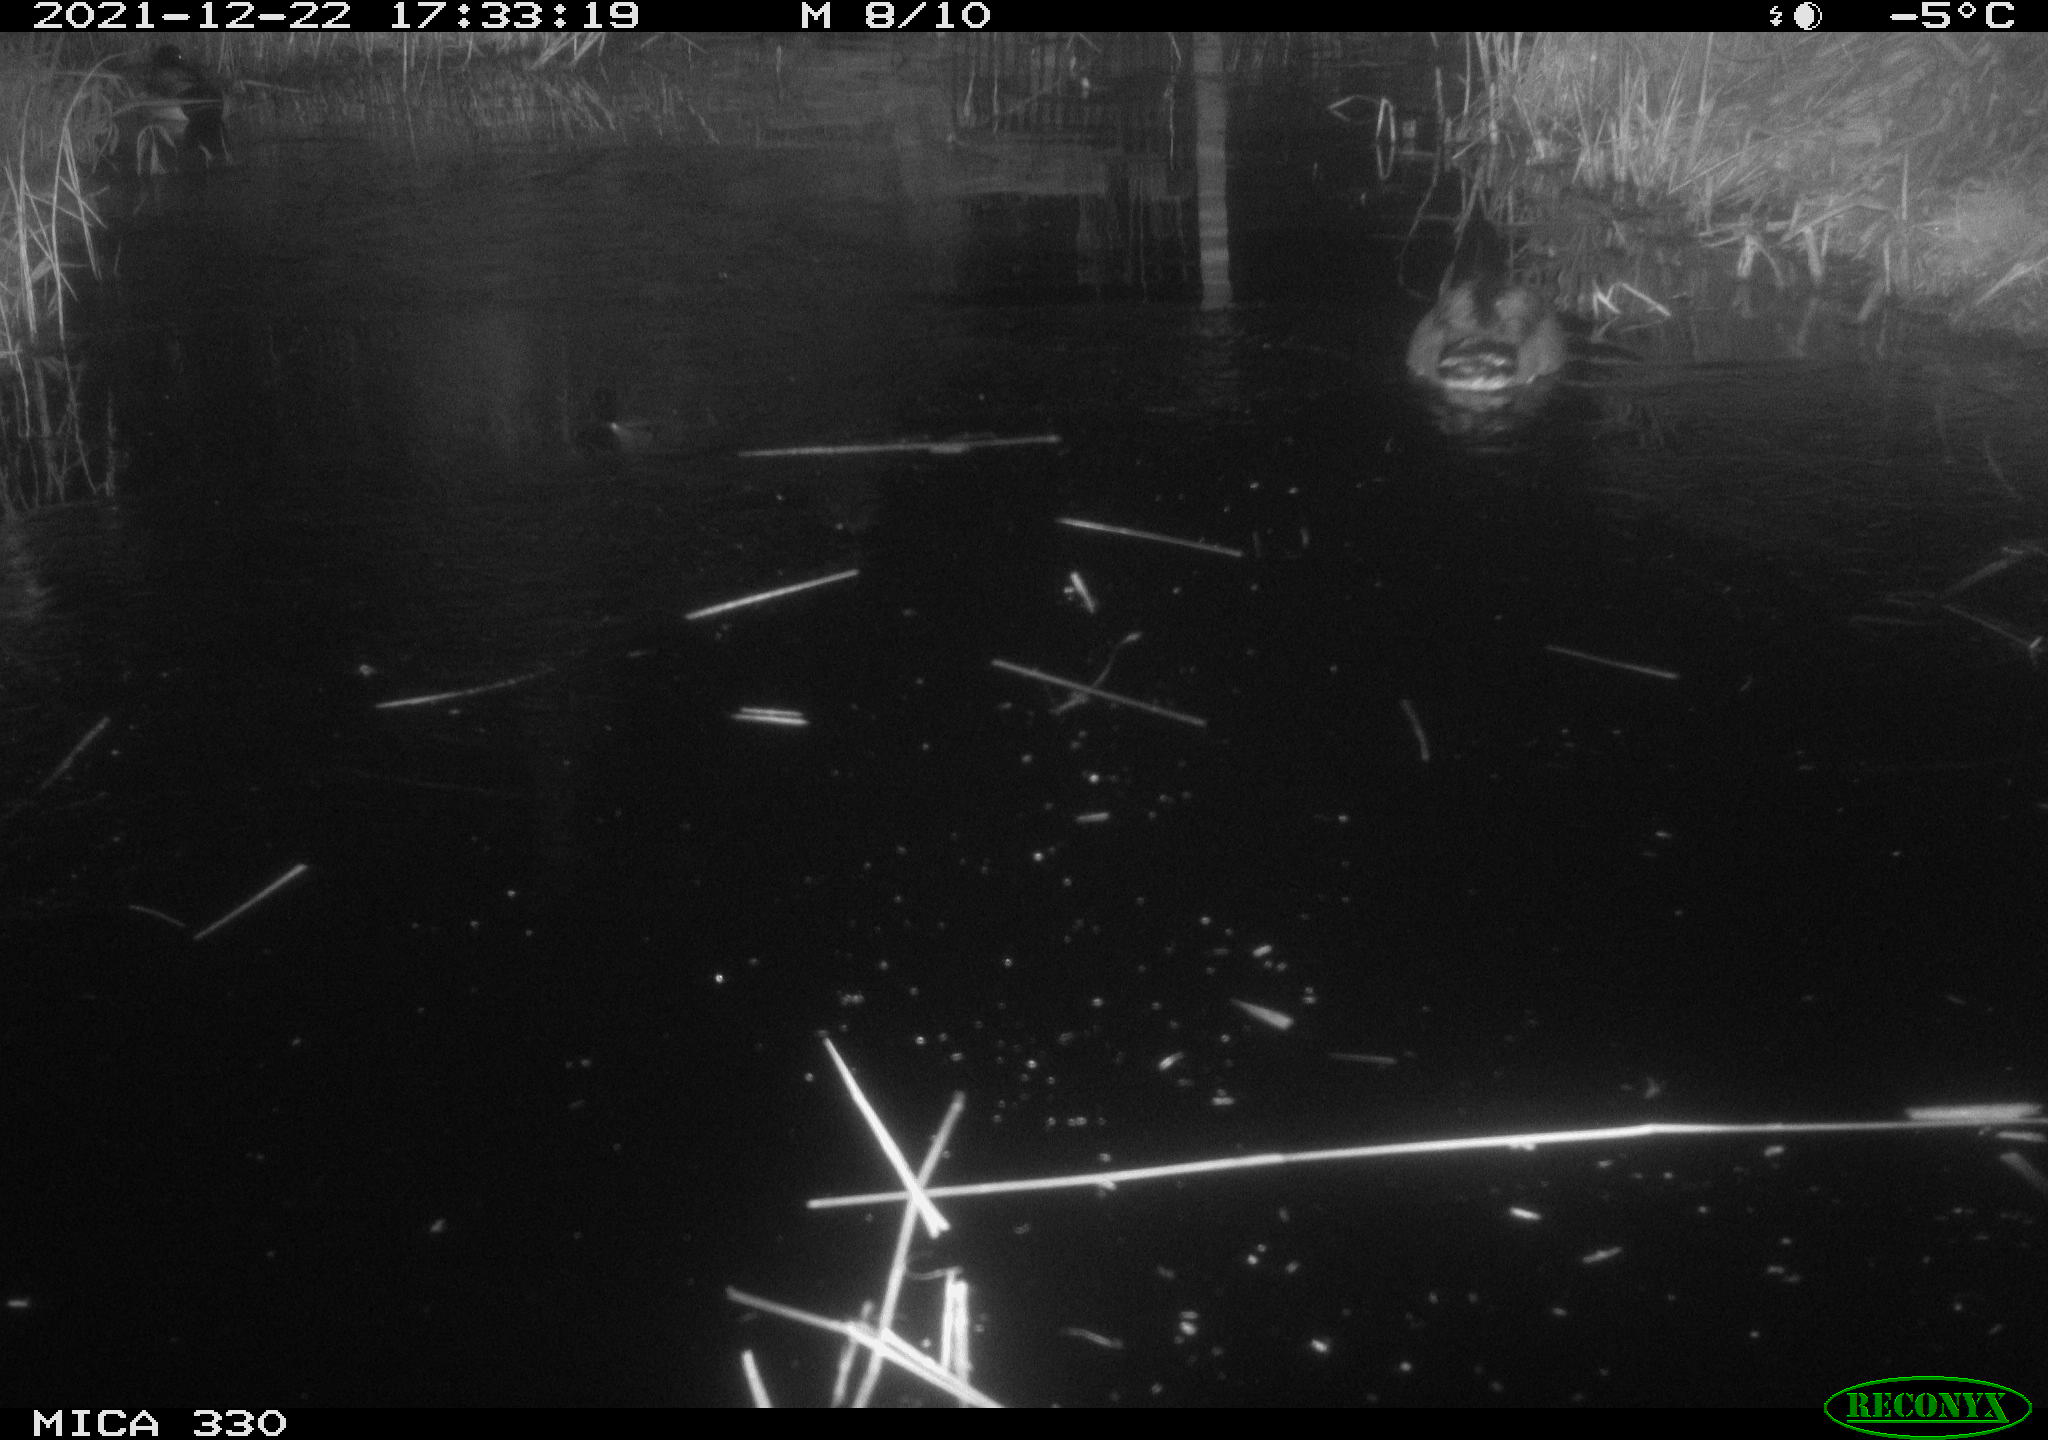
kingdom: Animalia
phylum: Chordata
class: Aves
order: Anseriformes
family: Anatidae
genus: Anas
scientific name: Anas platyrhynchos
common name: Mallard
